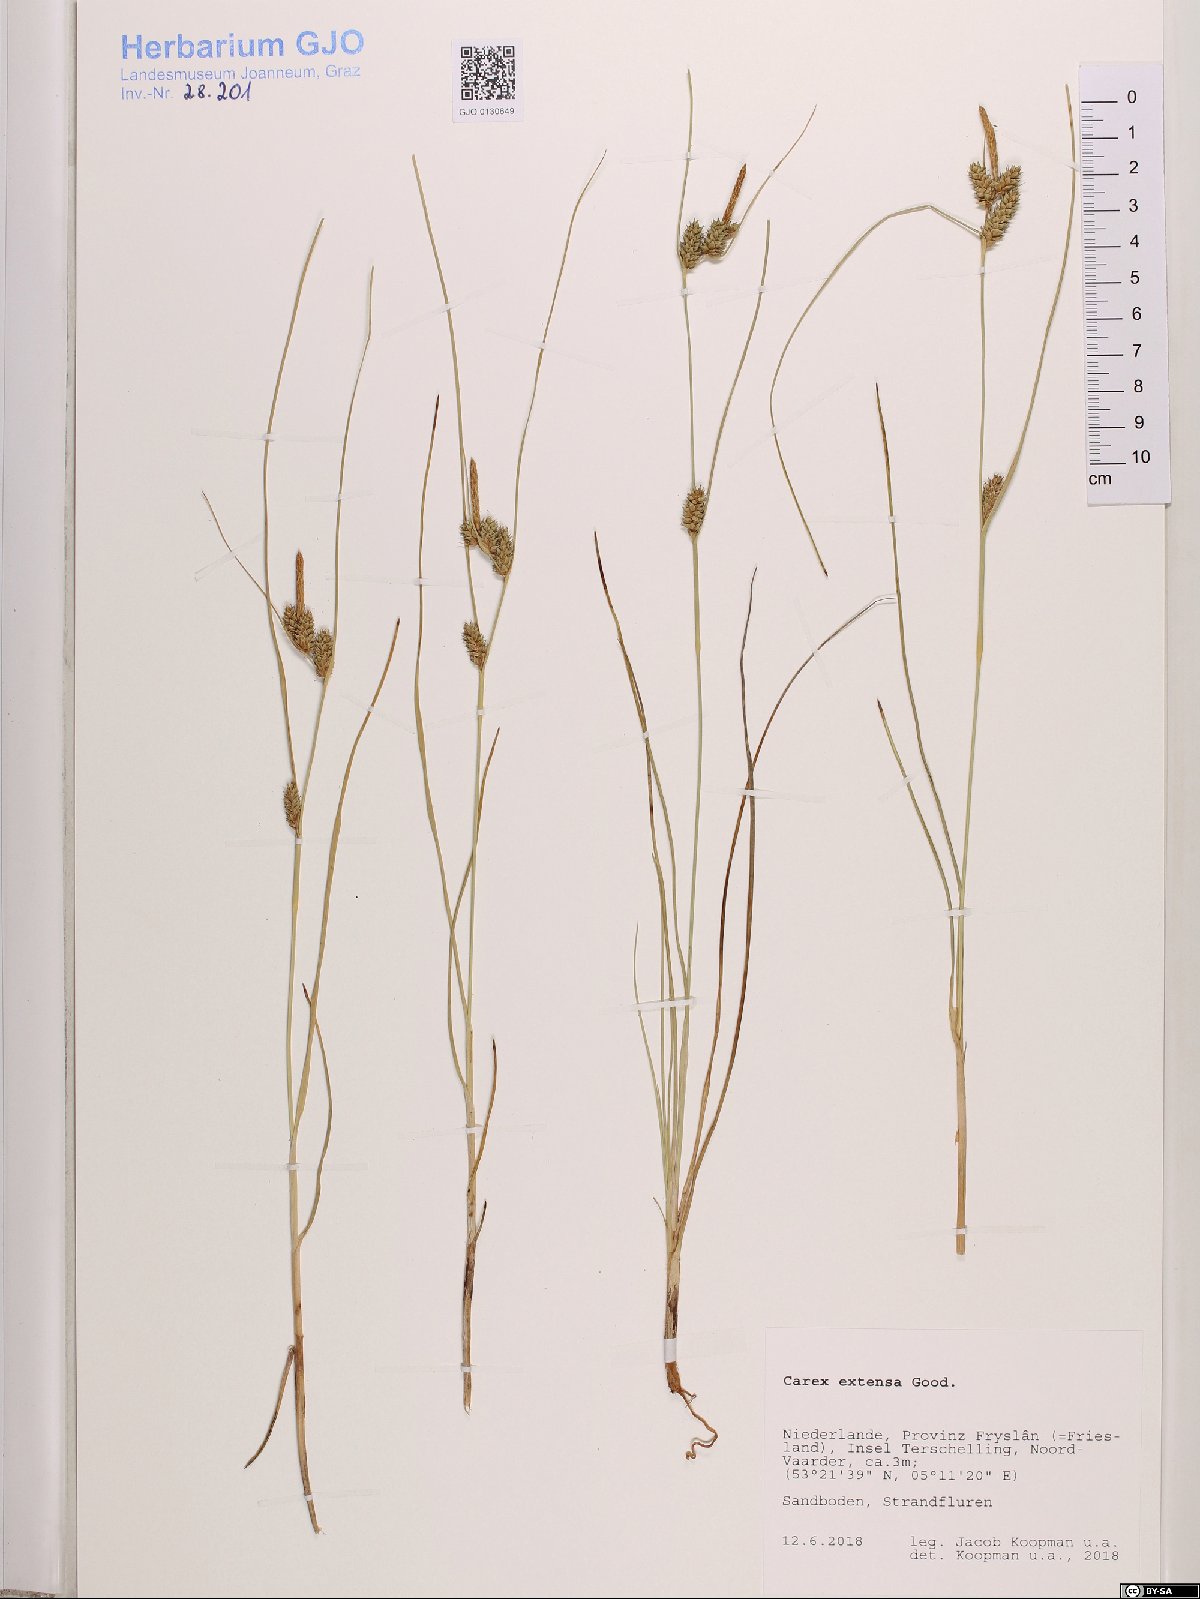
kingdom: Plantae
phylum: Tracheophyta
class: Liliopsida
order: Poales
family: Cyperaceae
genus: Carex
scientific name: Carex extensa
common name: Long-bracted sedge
